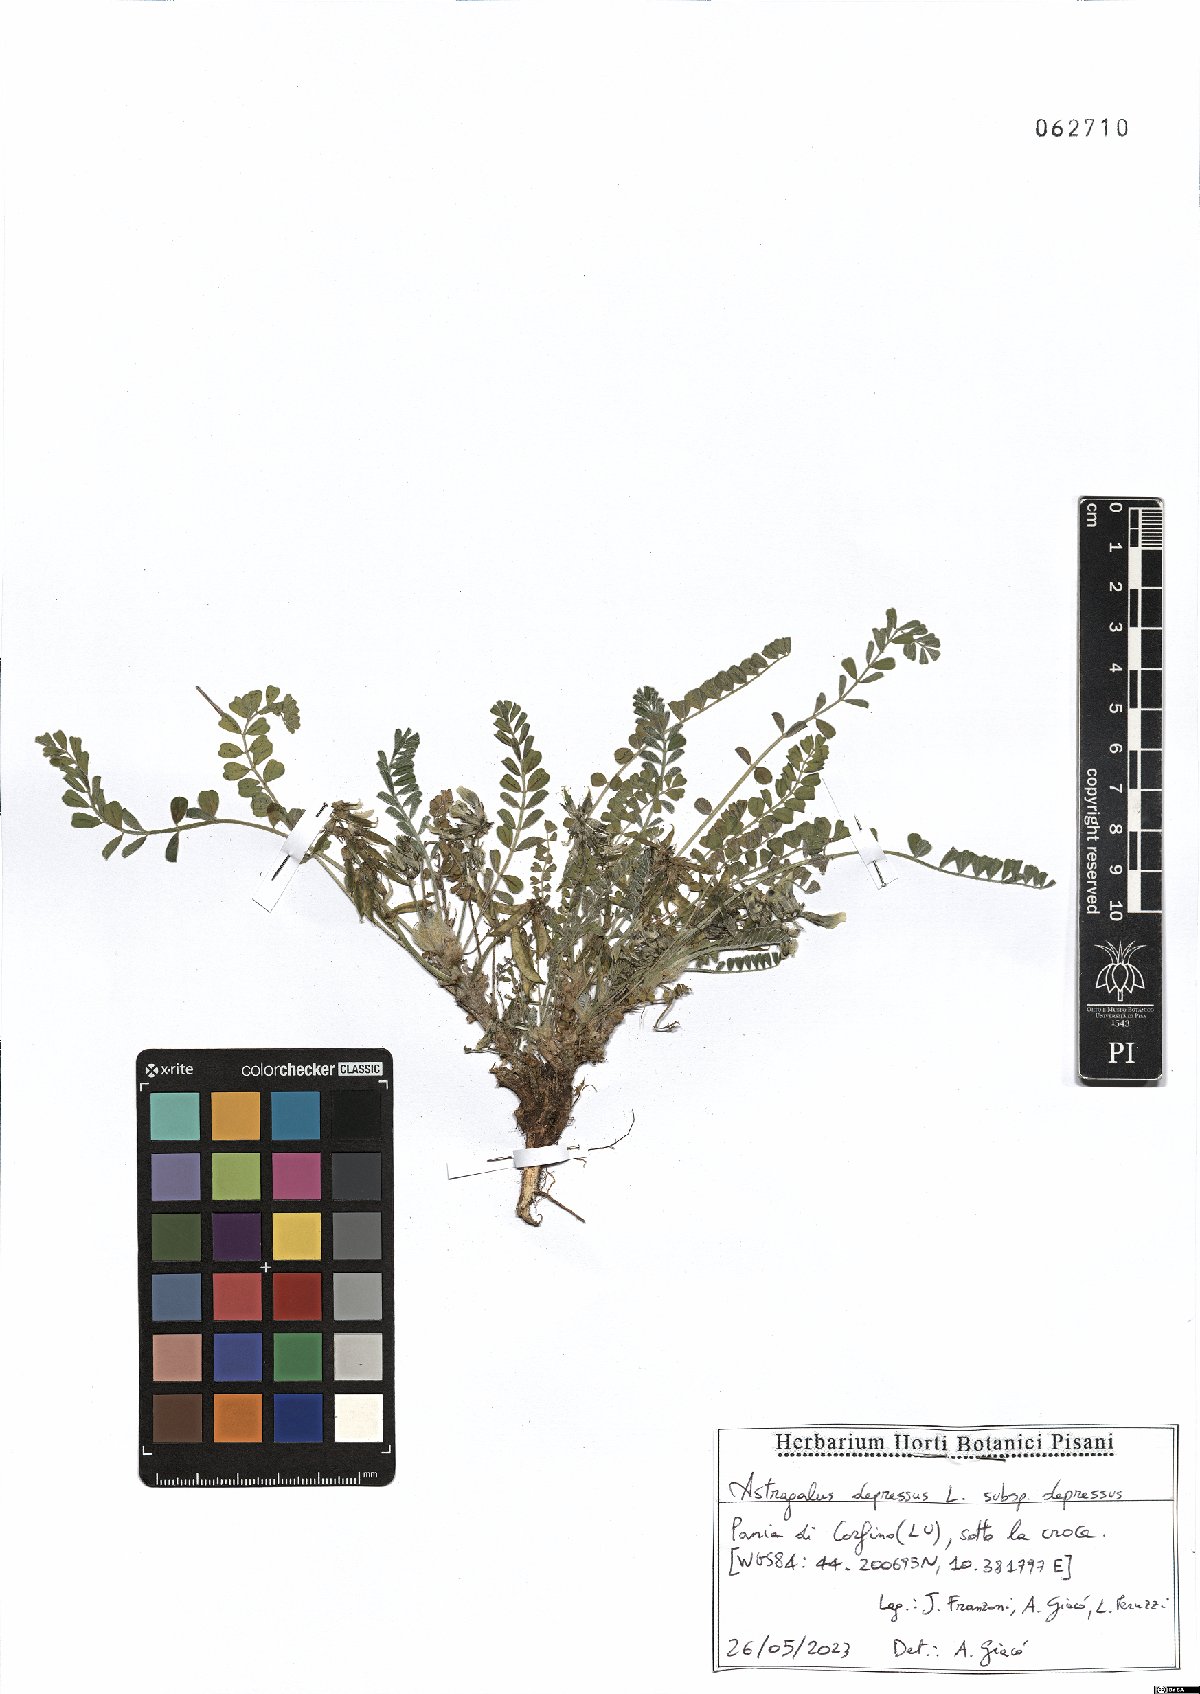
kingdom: Plantae
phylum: Tracheophyta
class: Magnoliopsida
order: Fabales
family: Fabaceae
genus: Astragalus
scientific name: Astragalus depressus
